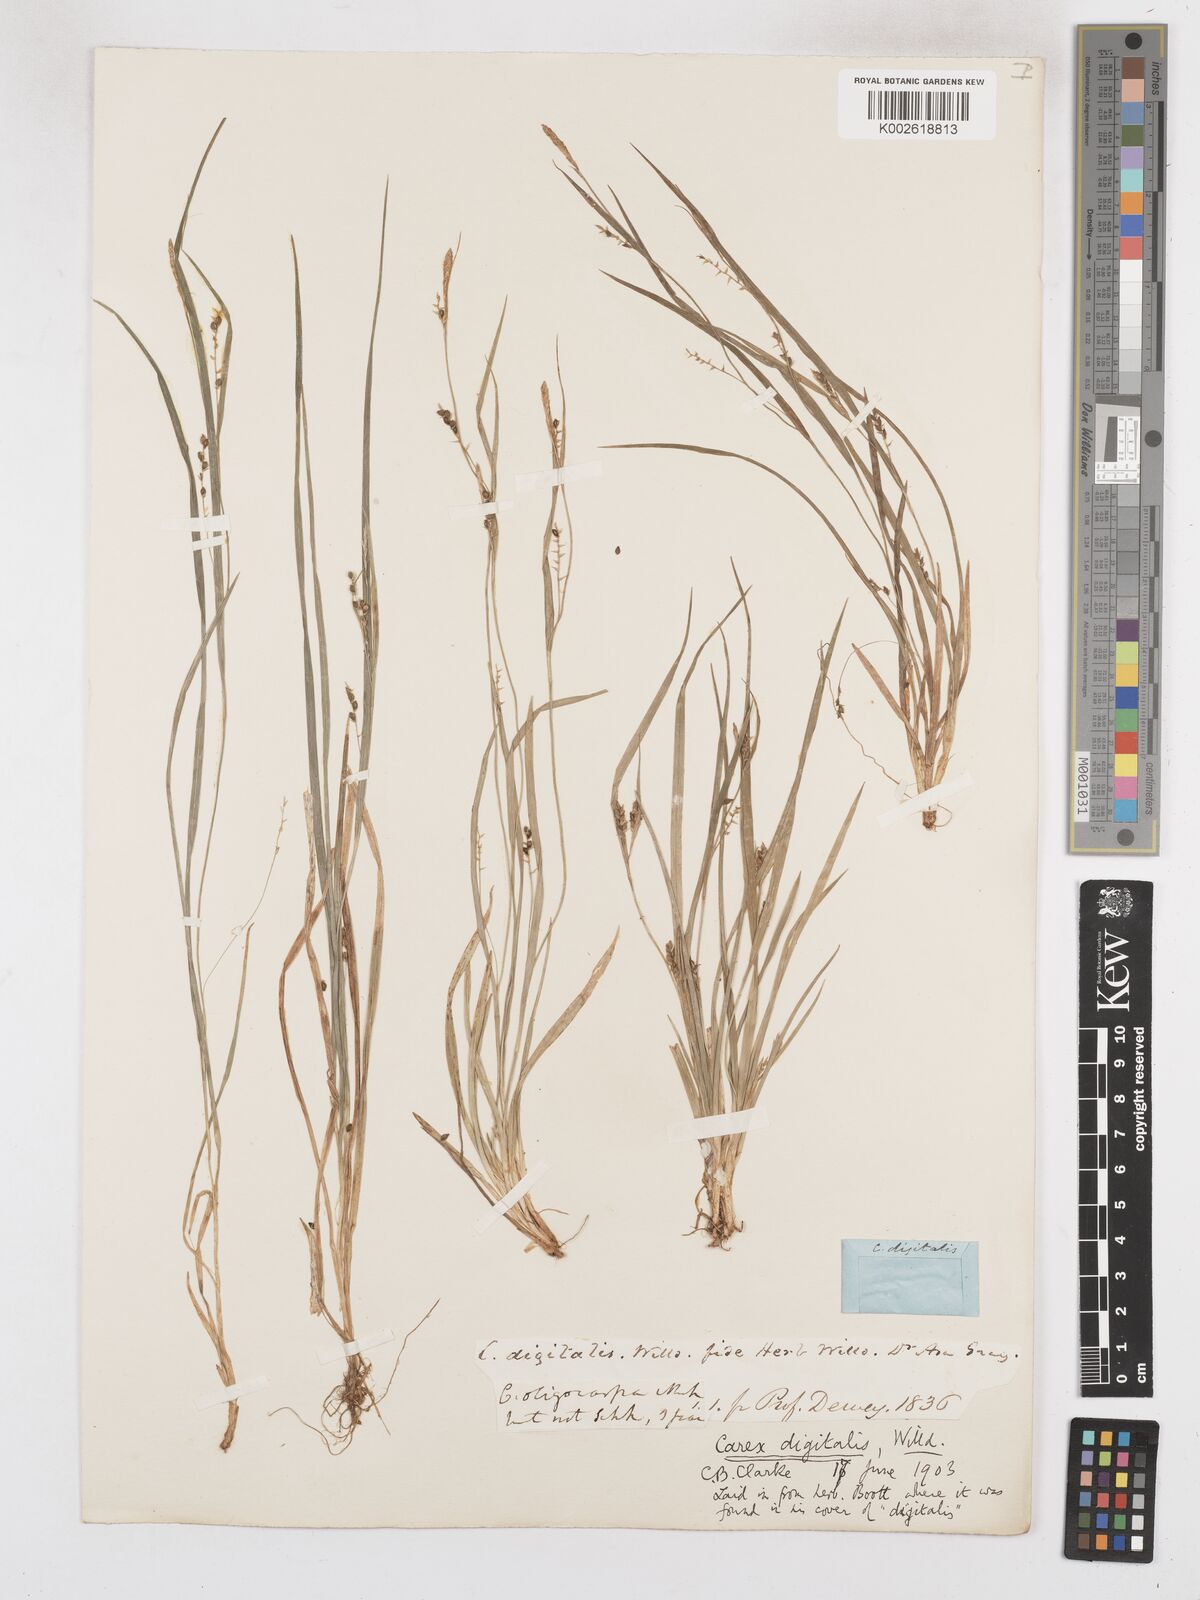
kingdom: Plantae
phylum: Tracheophyta
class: Liliopsida
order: Poales
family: Cyperaceae
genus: Carex
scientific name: Carex digitalis
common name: Slender wood sedge
